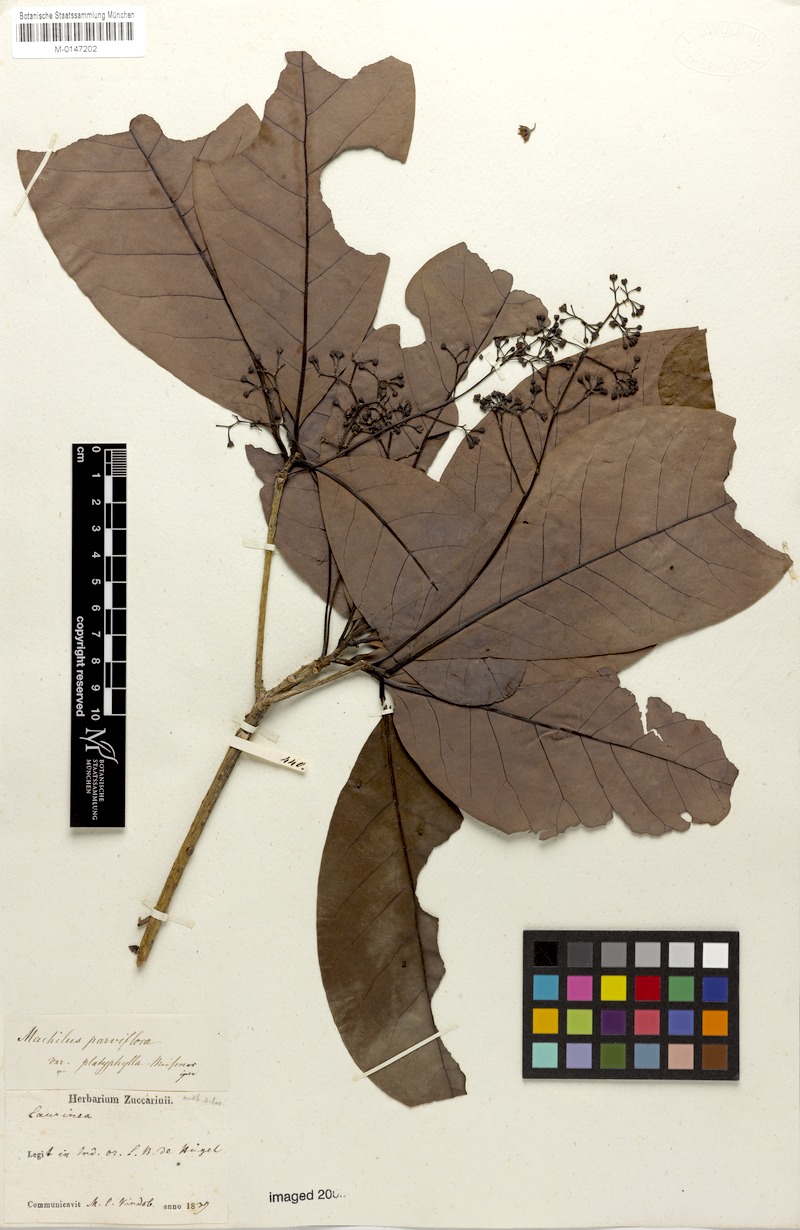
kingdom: Plantae
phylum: Tracheophyta
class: Magnoliopsida
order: Laurales
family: Lauraceae
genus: Machilus
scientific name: Machilus parviflora
